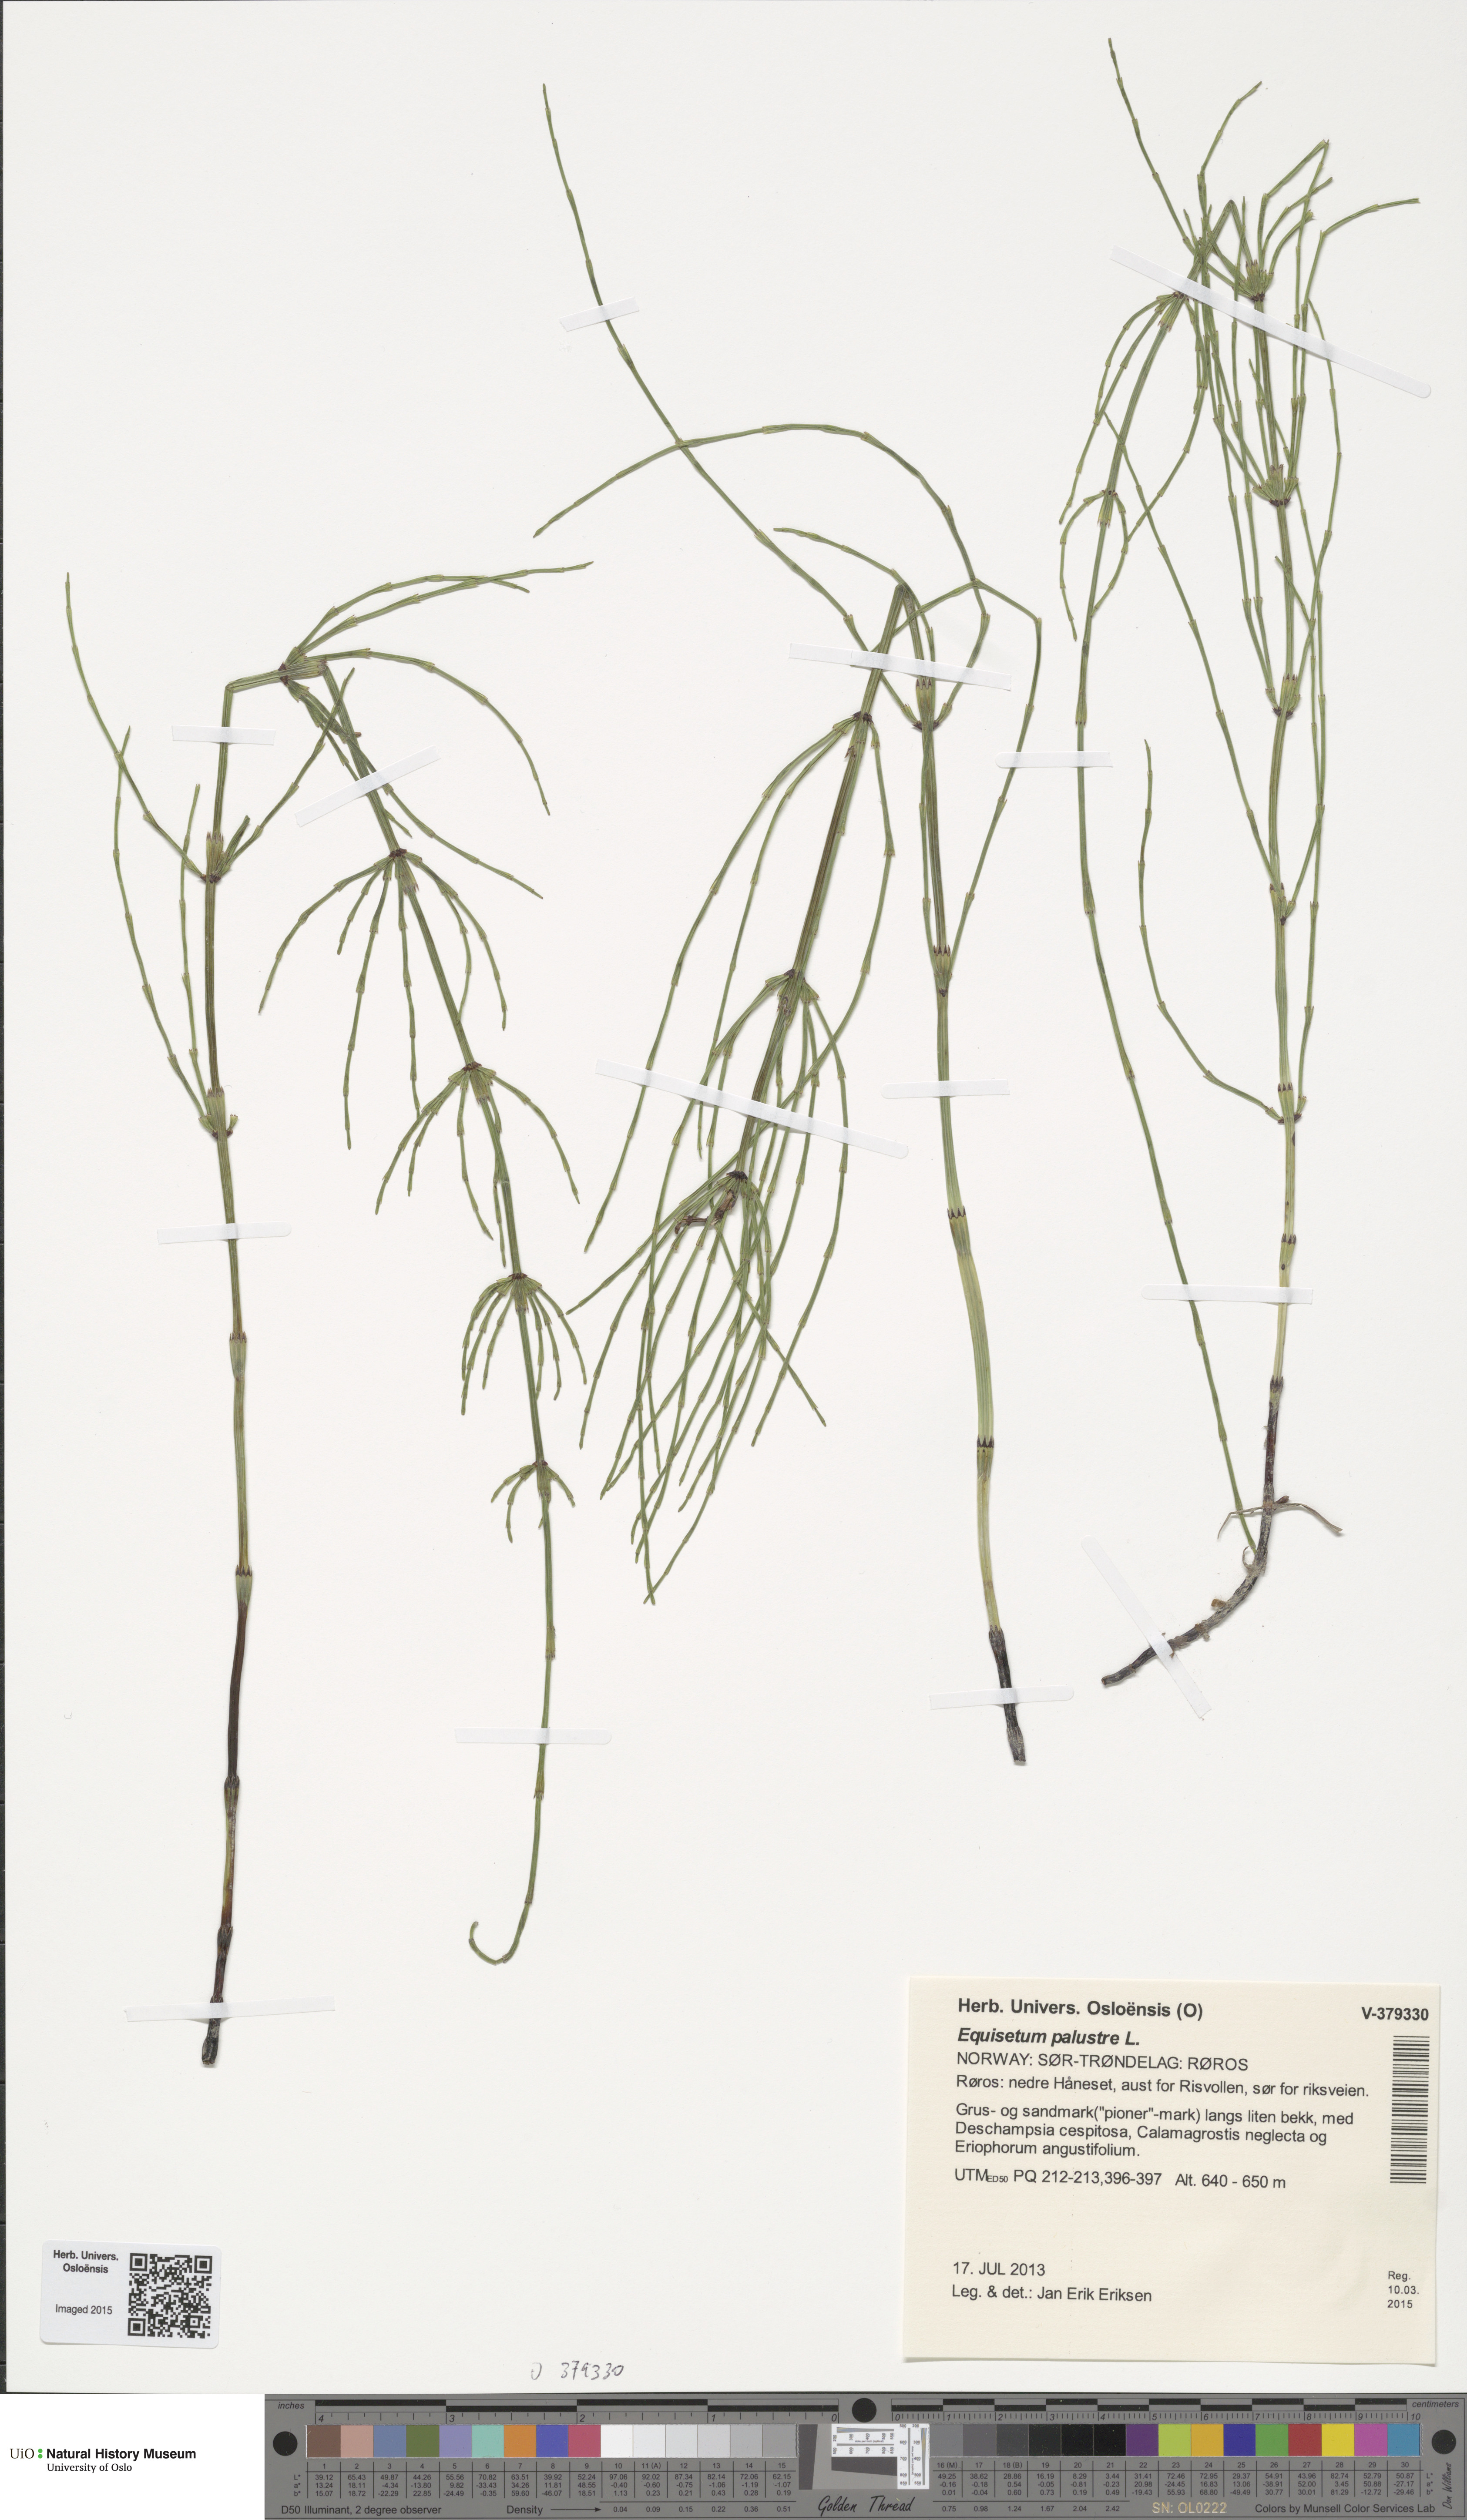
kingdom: Plantae
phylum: Tracheophyta
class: Polypodiopsida
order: Equisetales
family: Equisetaceae
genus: Equisetum
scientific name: Equisetum palustre
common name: Marsh horsetail
